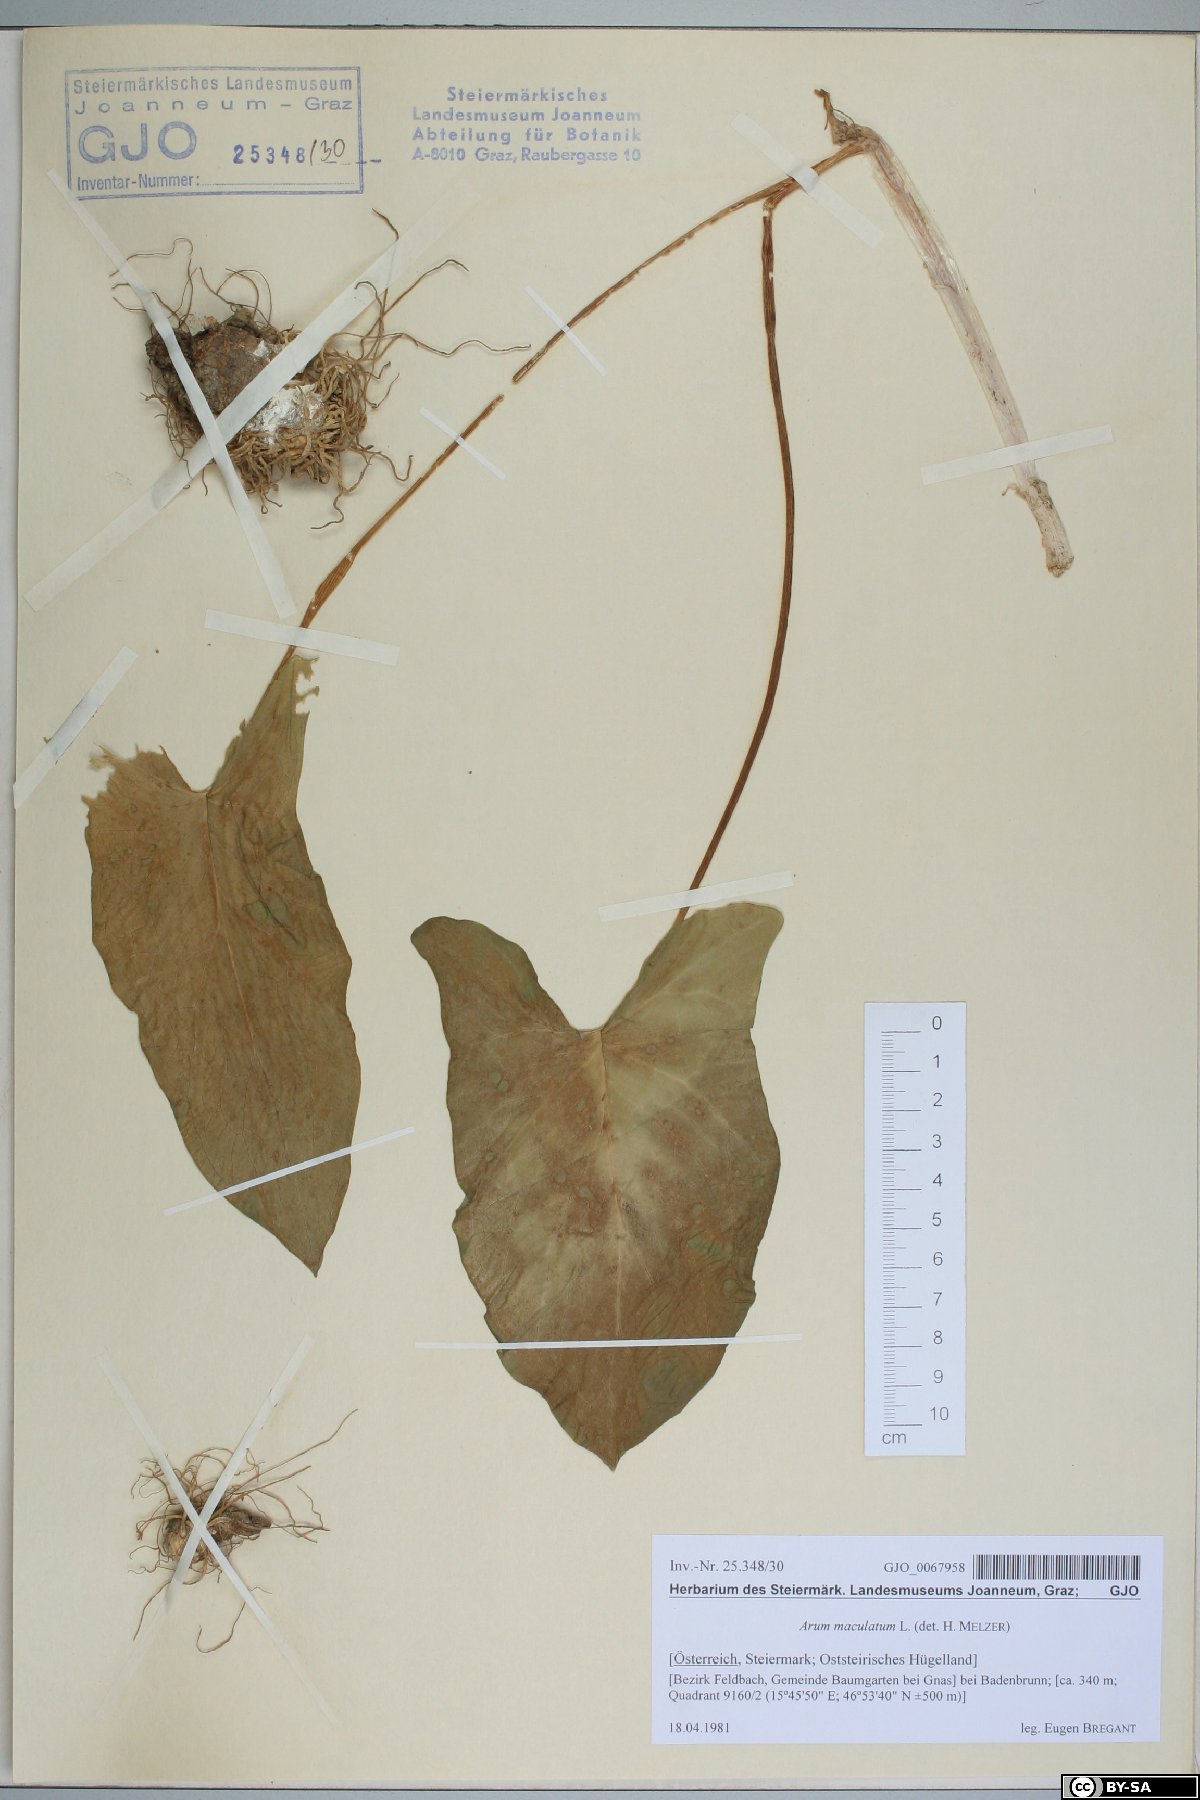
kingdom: Plantae
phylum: Tracheophyta
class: Liliopsida
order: Alismatales
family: Araceae
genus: Arum
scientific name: Arum maculatum
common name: Lords-and-ladies
